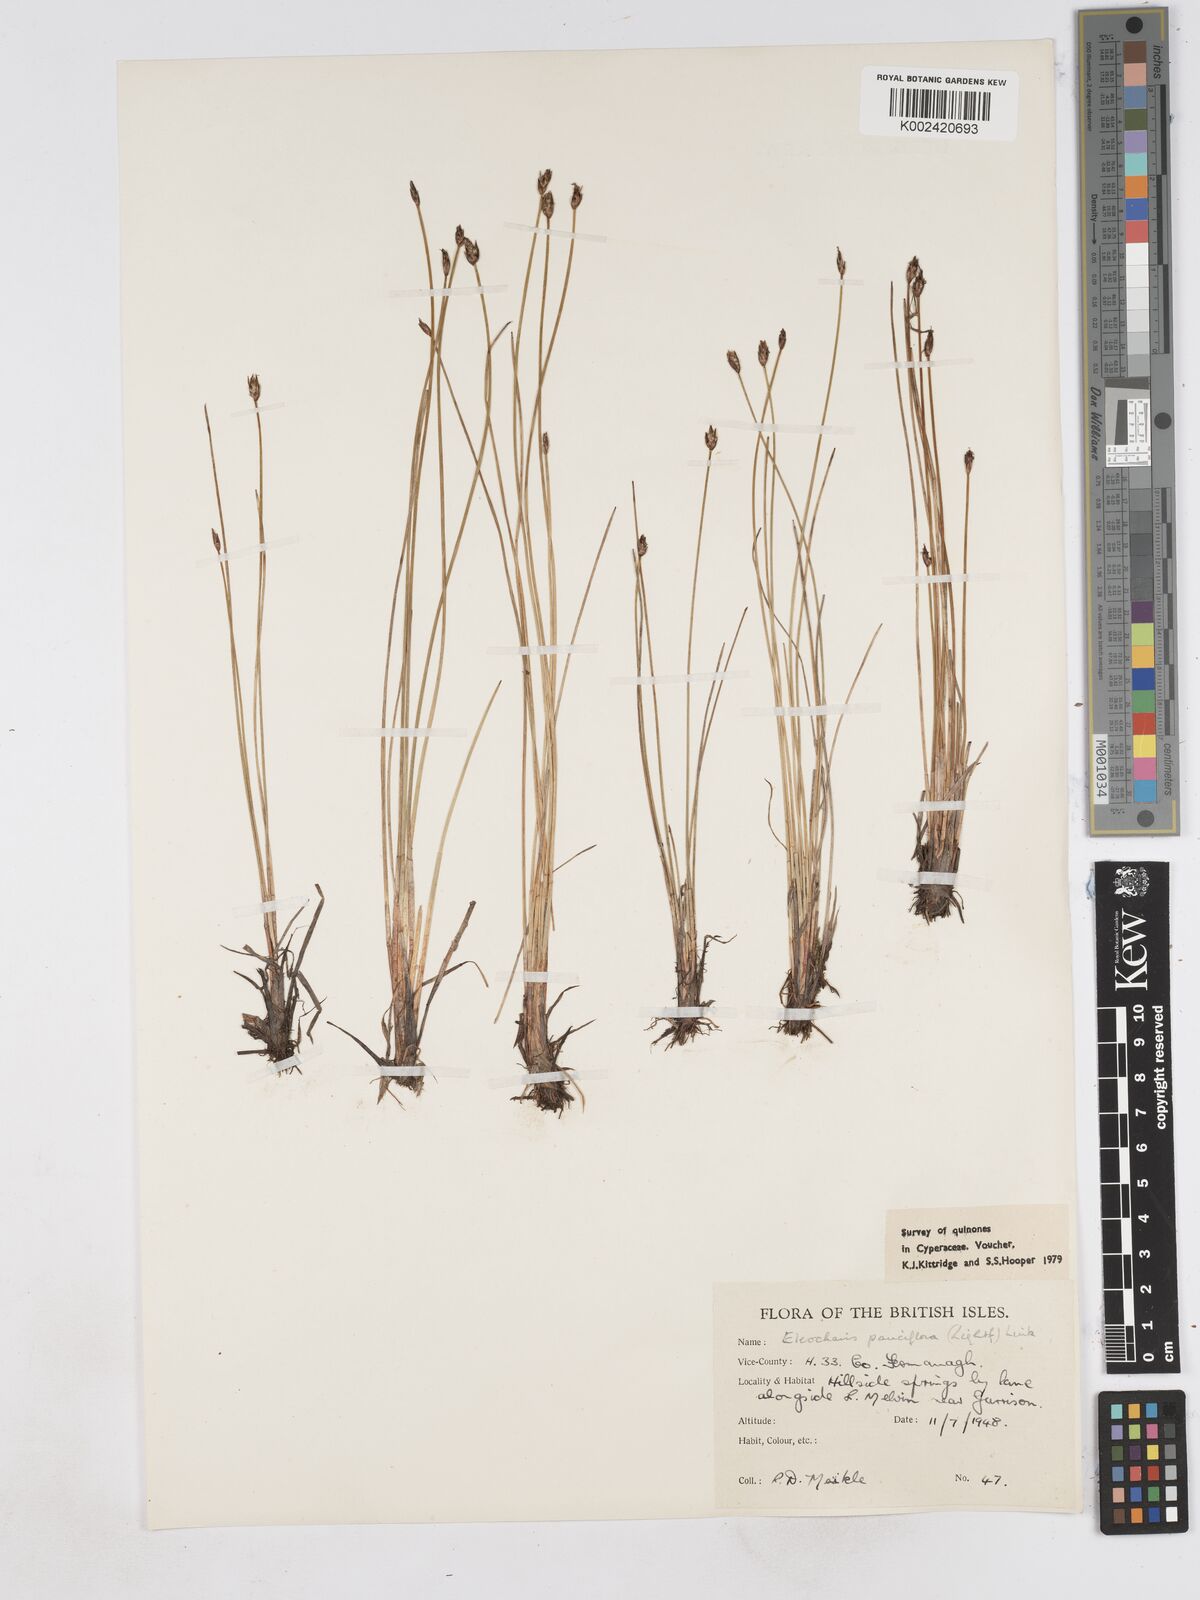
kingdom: Plantae
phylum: Tracheophyta
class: Liliopsida
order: Poales
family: Cyperaceae
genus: Eleocharis
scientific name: Eleocharis quinqueflora
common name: Few-flowered spike-rush
